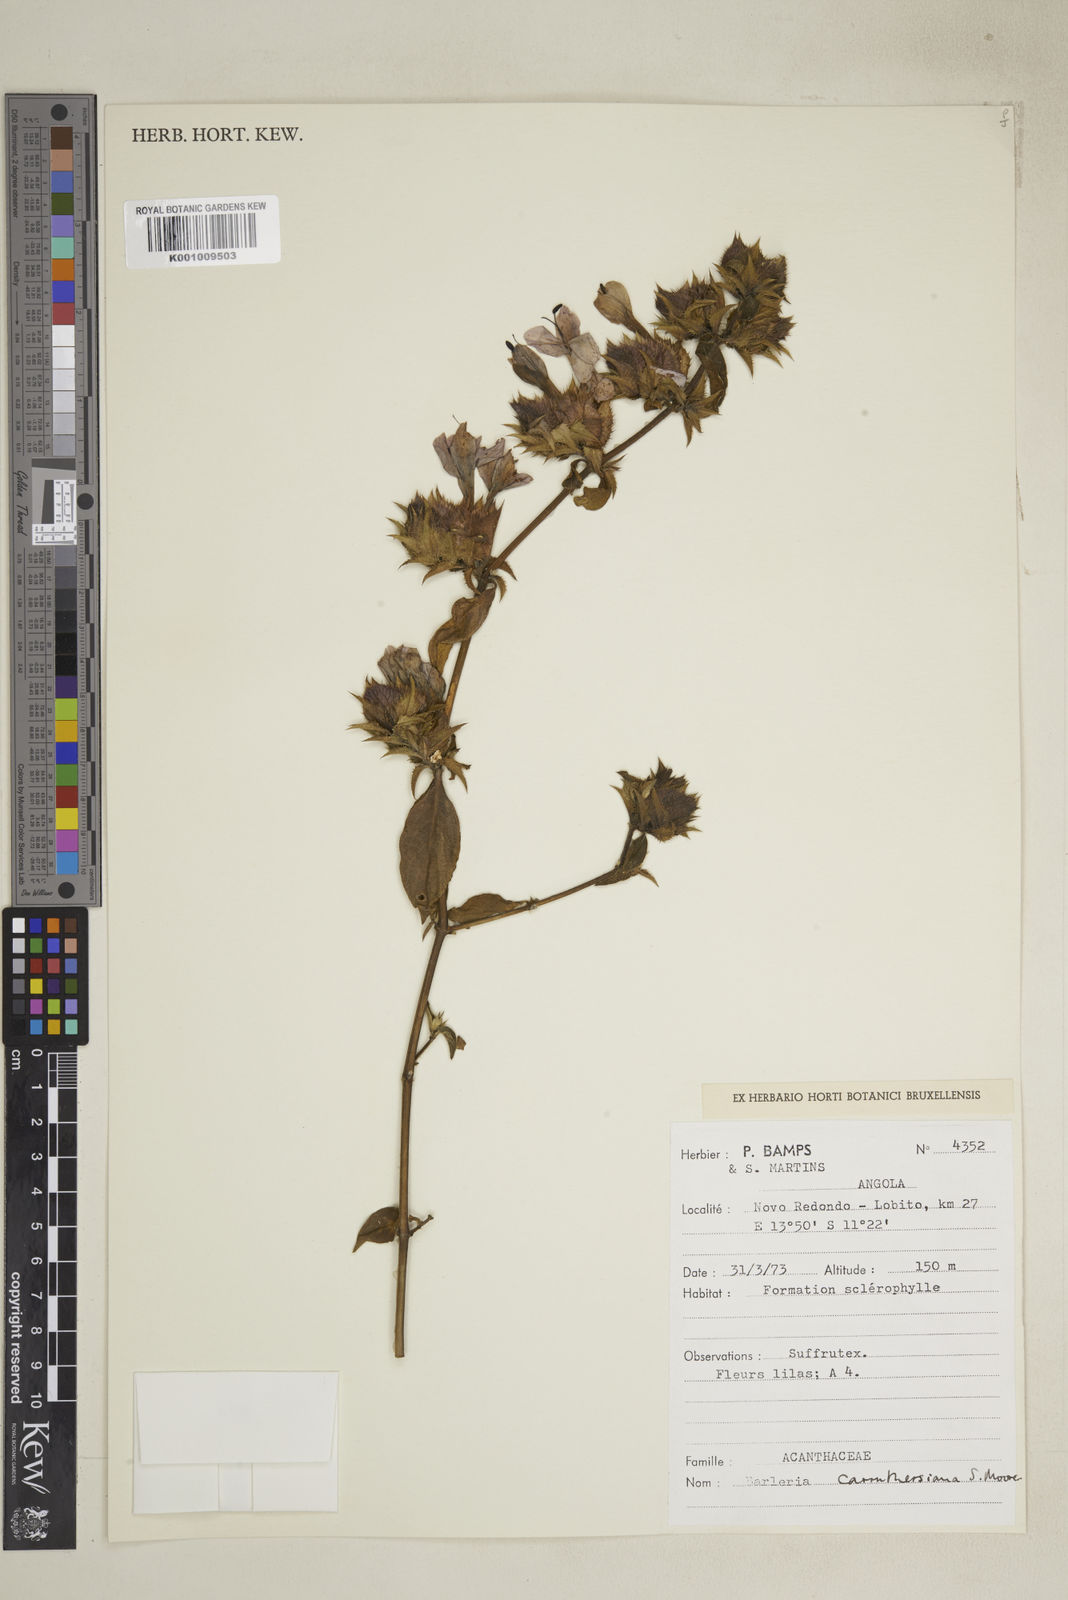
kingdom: Plantae
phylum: Tracheophyta
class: Magnoliopsida
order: Lamiales
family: Acanthaceae
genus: Barleria
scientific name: Barleria carruthersiana
